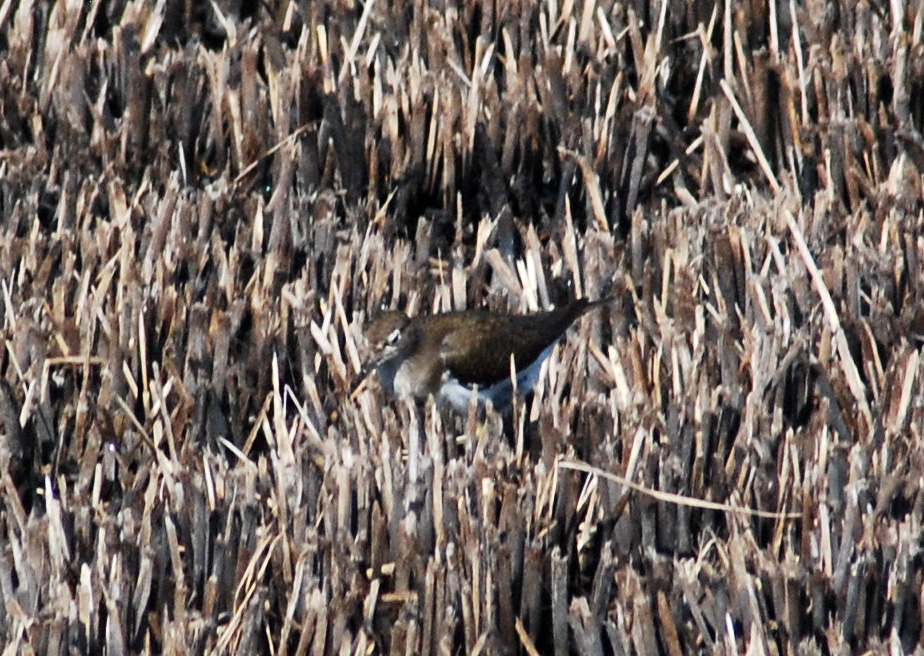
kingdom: Animalia
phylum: Chordata
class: Aves
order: Charadriiformes
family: Scolopacidae
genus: Tringa
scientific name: Tringa ochropus
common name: Green sandpiper
